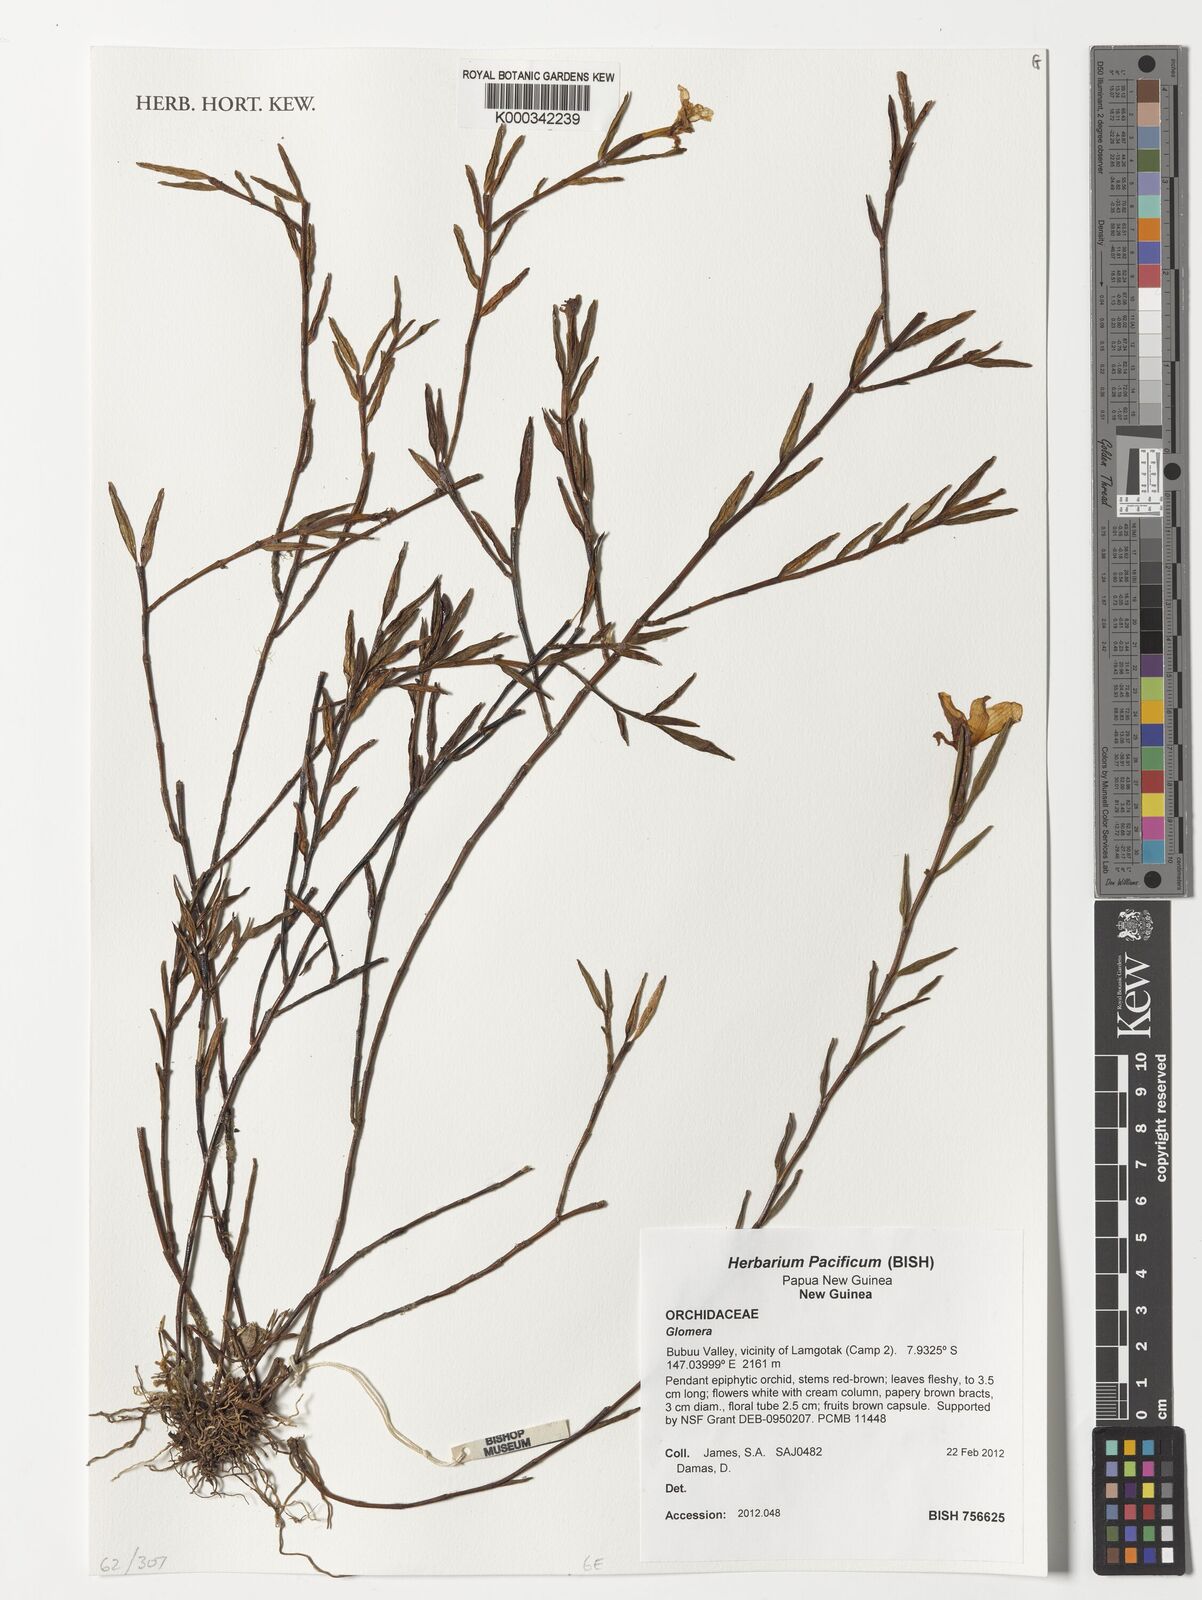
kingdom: Plantae
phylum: Tracheophyta
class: Liliopsida
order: Asparagales
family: Orchidaceae
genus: Glomera
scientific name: Glomera
